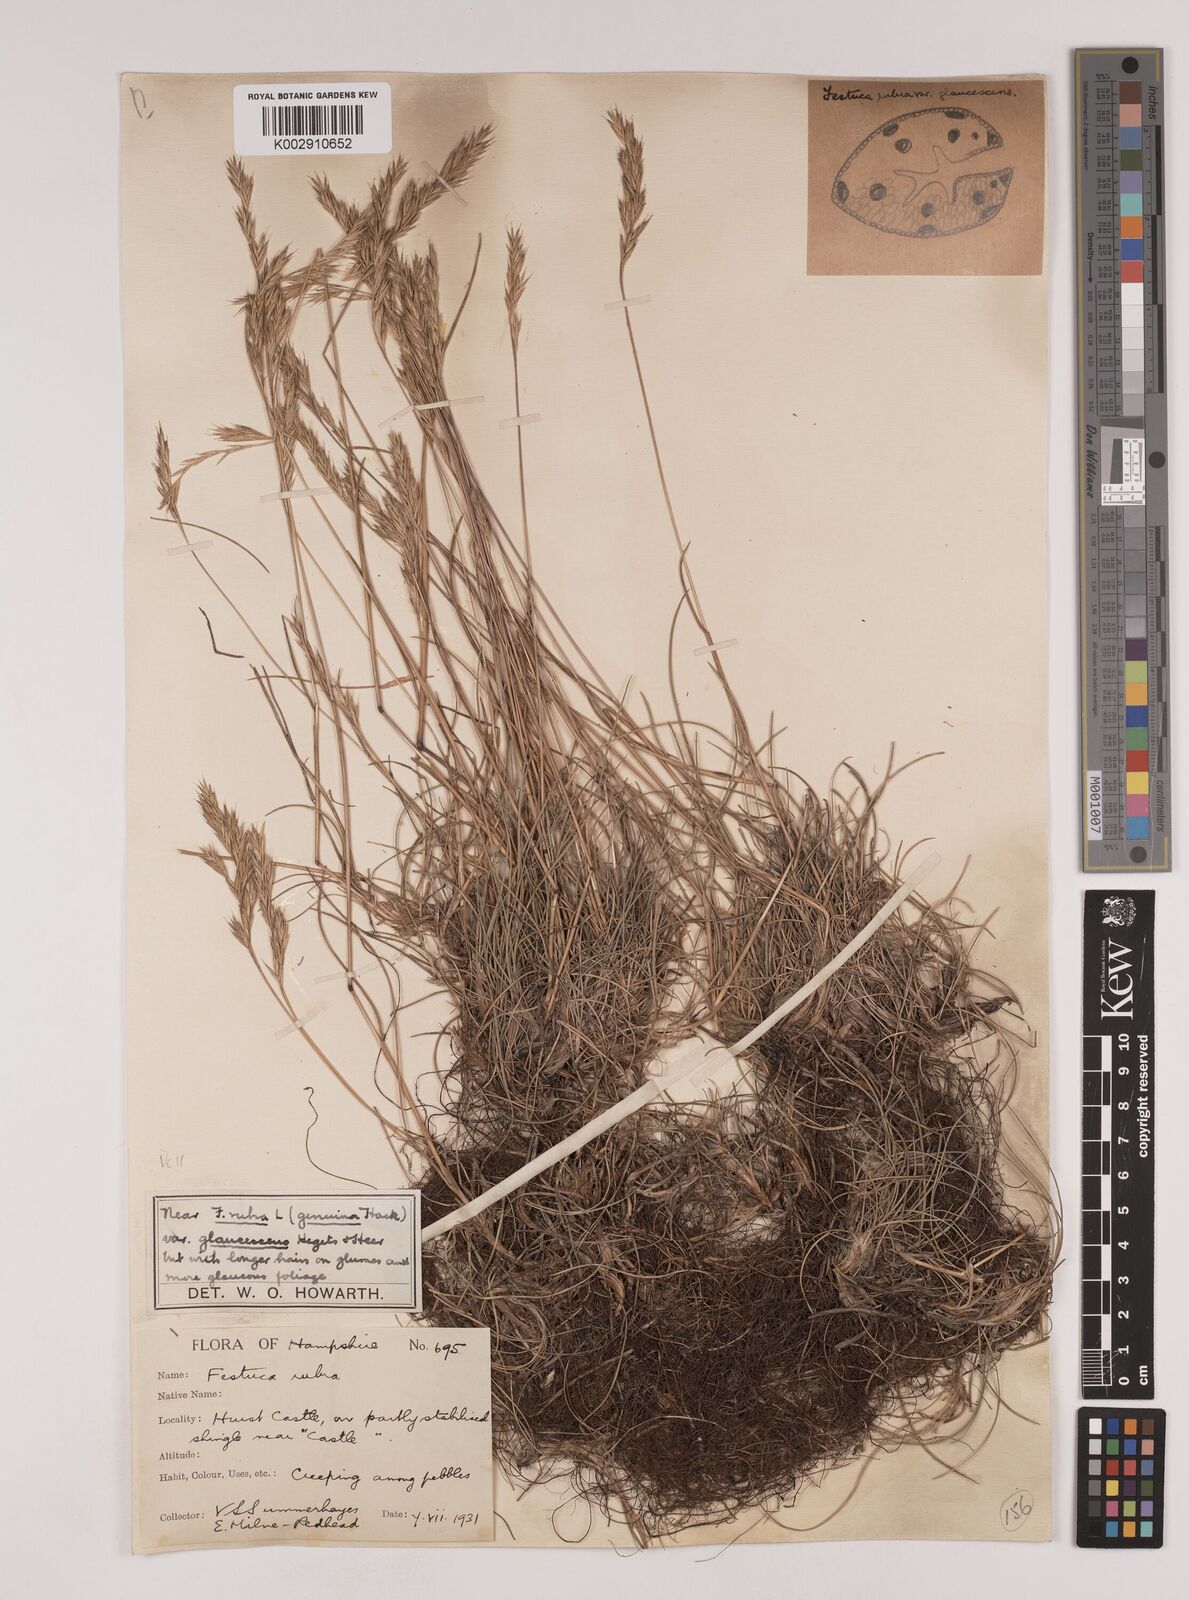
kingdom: Plantae
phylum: Tracheophyta
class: Liliopsida
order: Poales
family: Poaceae
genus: Festuca
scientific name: Festuca rubra
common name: Red fescue
